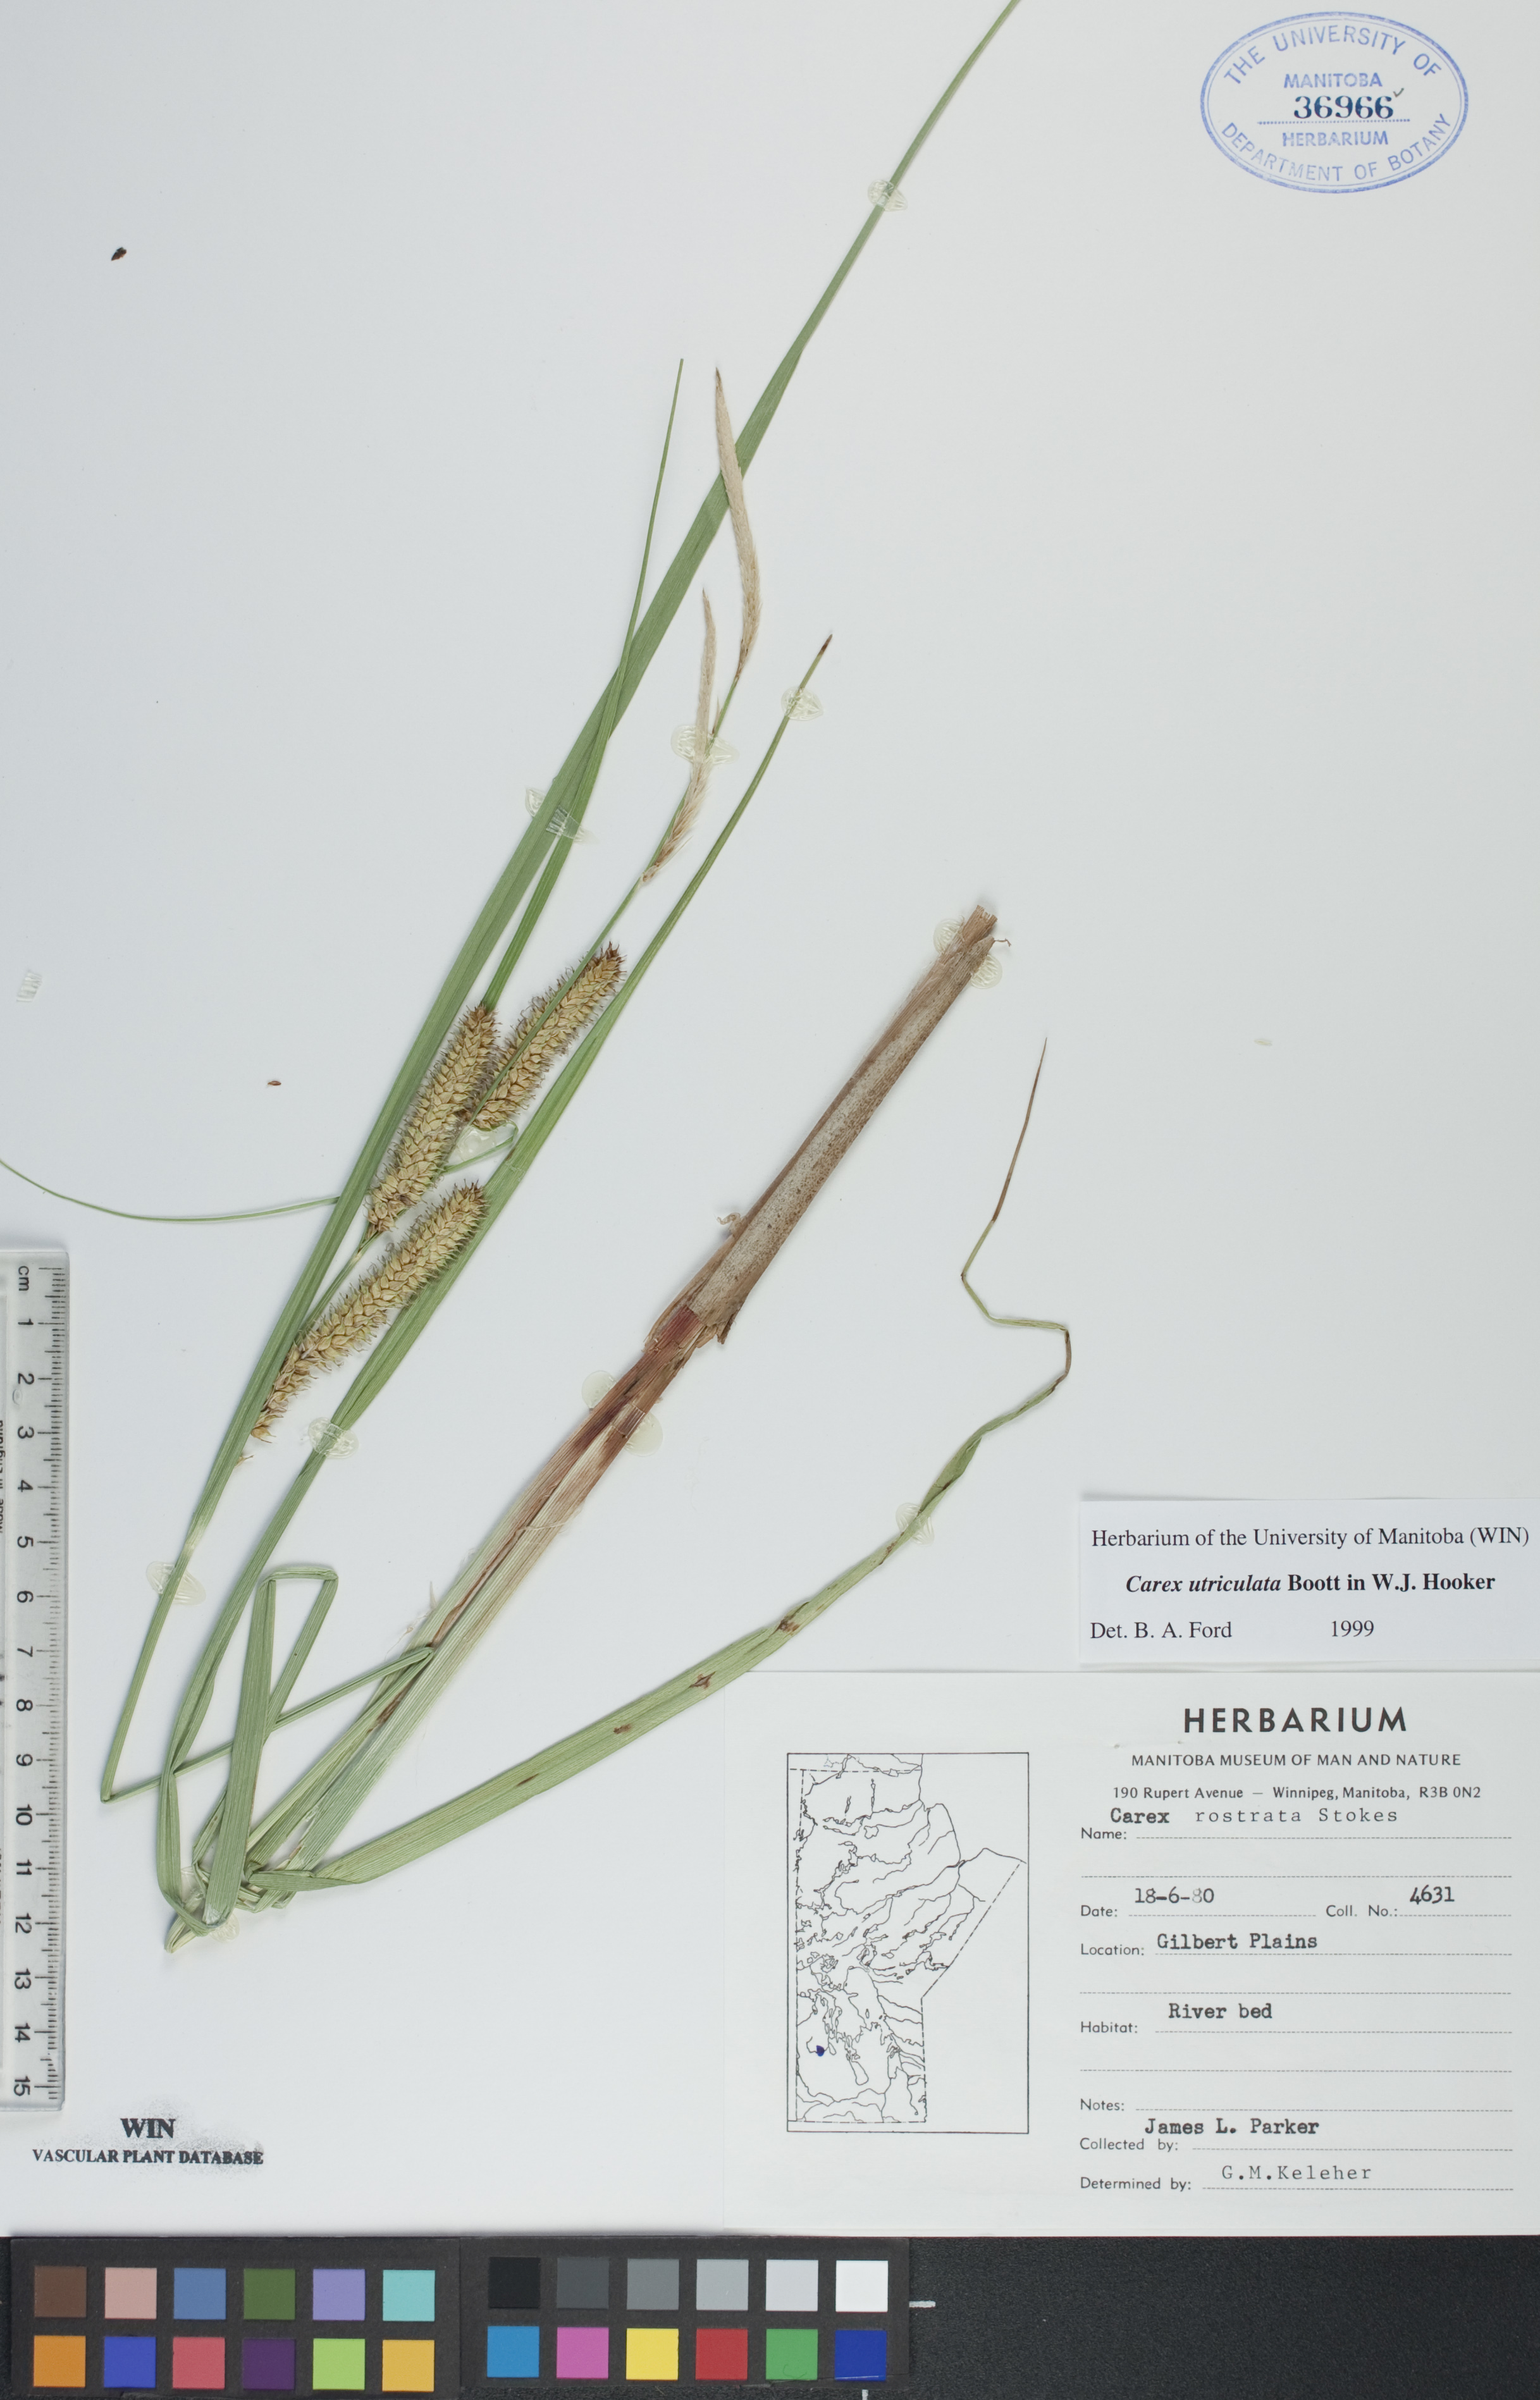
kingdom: Plantae
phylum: Tracheophyta
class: Liliopsida
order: Poales
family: Cyperaceae
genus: Carex
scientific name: Carex utriculata
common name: Beaked sedge
